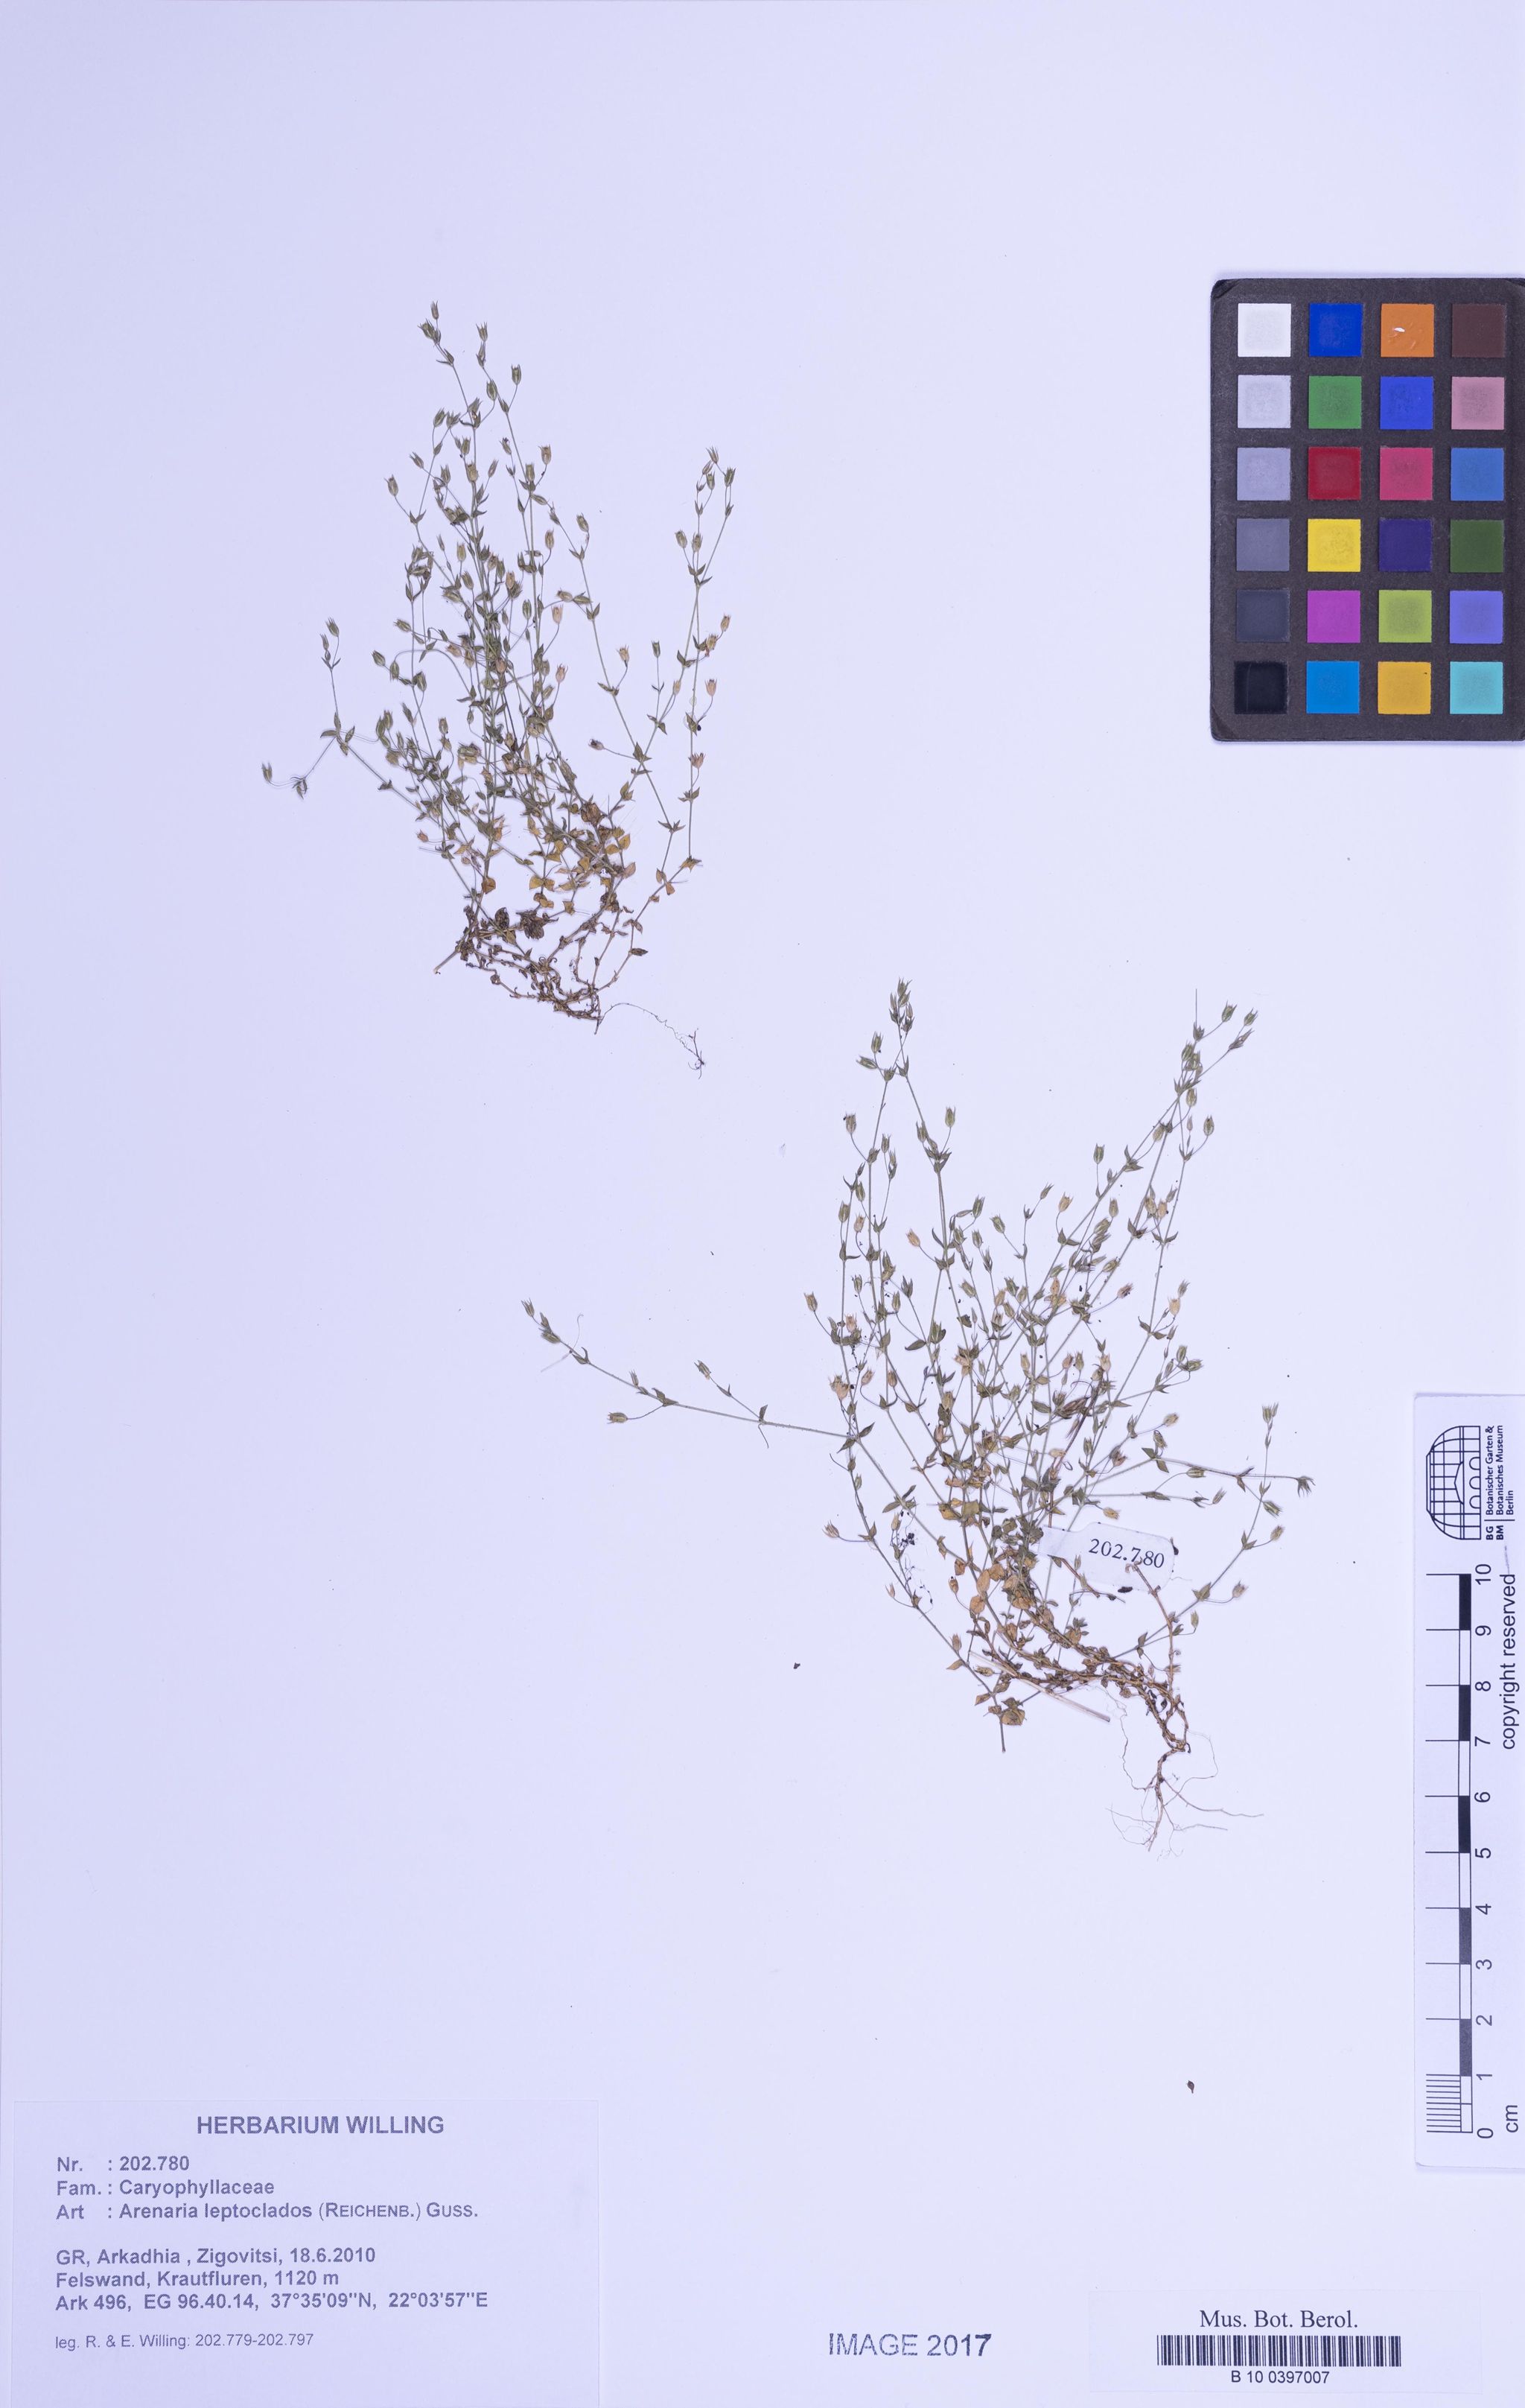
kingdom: Plantae
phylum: Tracheophyta
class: Magnoliopsida
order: Caryophyllales
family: Caryophyllaceae
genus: Arenaria
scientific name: Arenaria leptoclados
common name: Thyme-leaved sandwort
